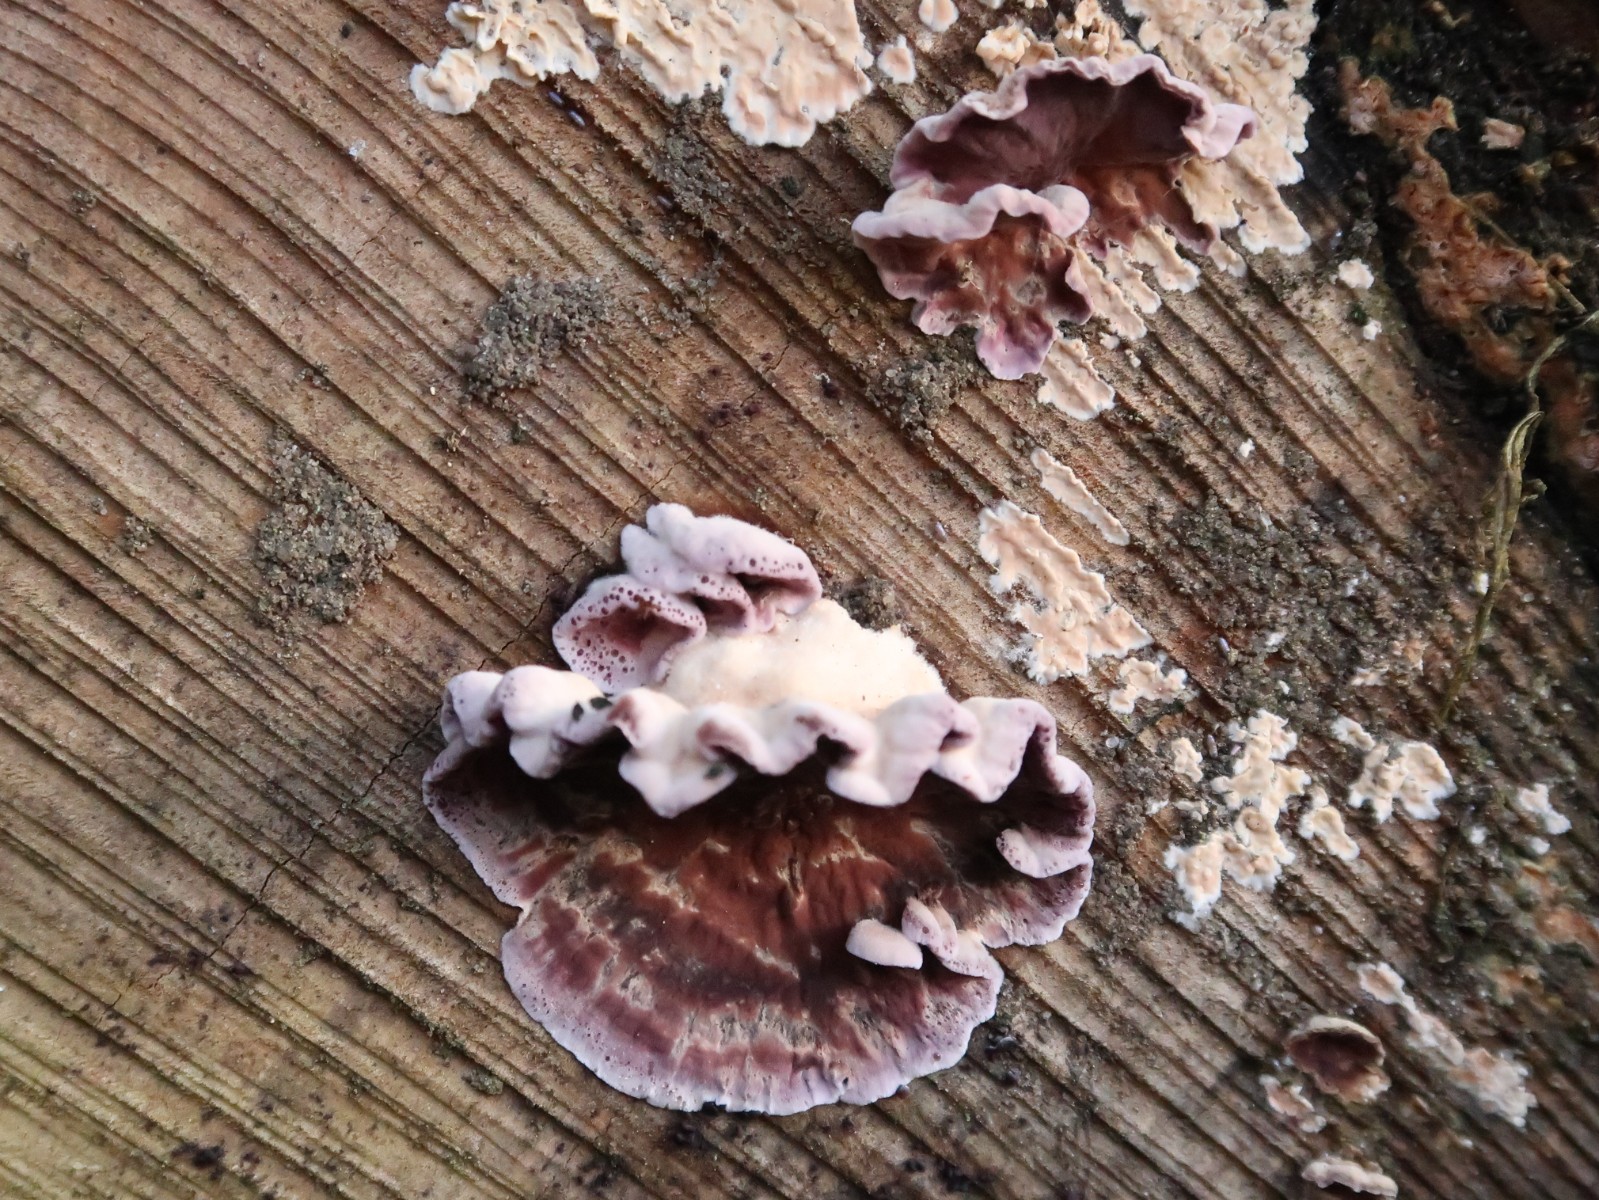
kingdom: Fungi
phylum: Basidiomycota
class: Agaricomycetes
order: Hymenochaetales
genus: Trichaptum
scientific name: Trichaptum abietinum
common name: almindelig violporesvamp
